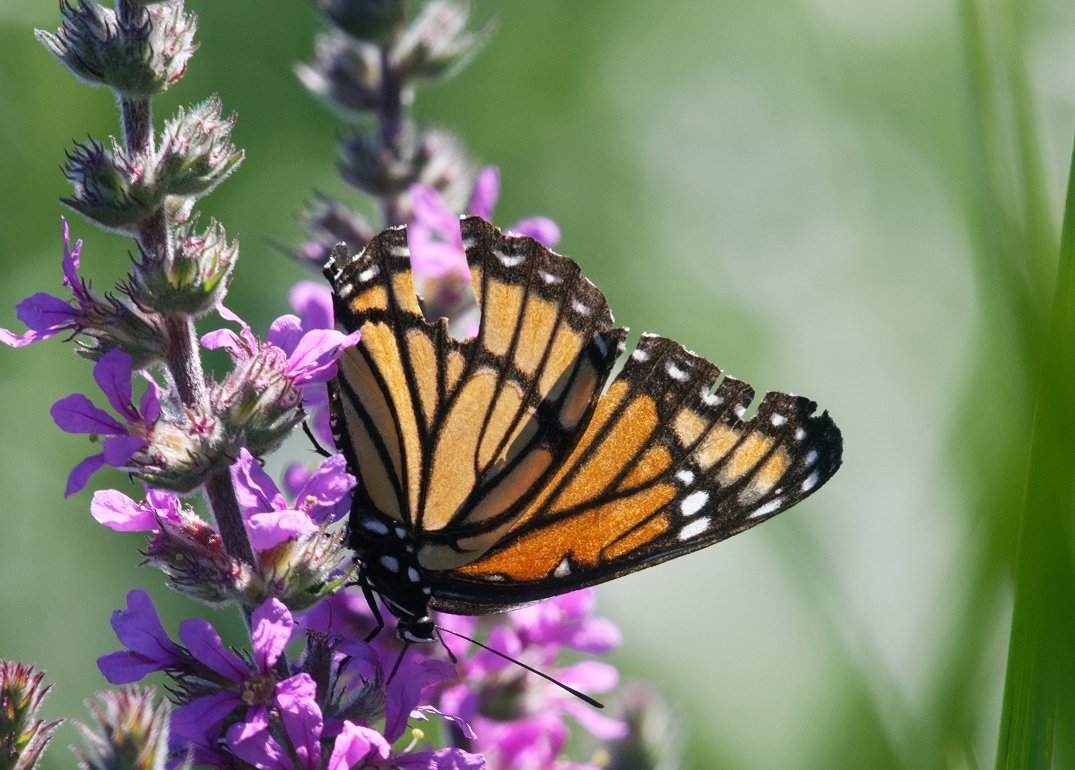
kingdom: Animalia
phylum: Arthropoda
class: Insecta
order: Lepidoptera
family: Nymphalidae
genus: Limenitis
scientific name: Limenitis archippus
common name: Viceroy
